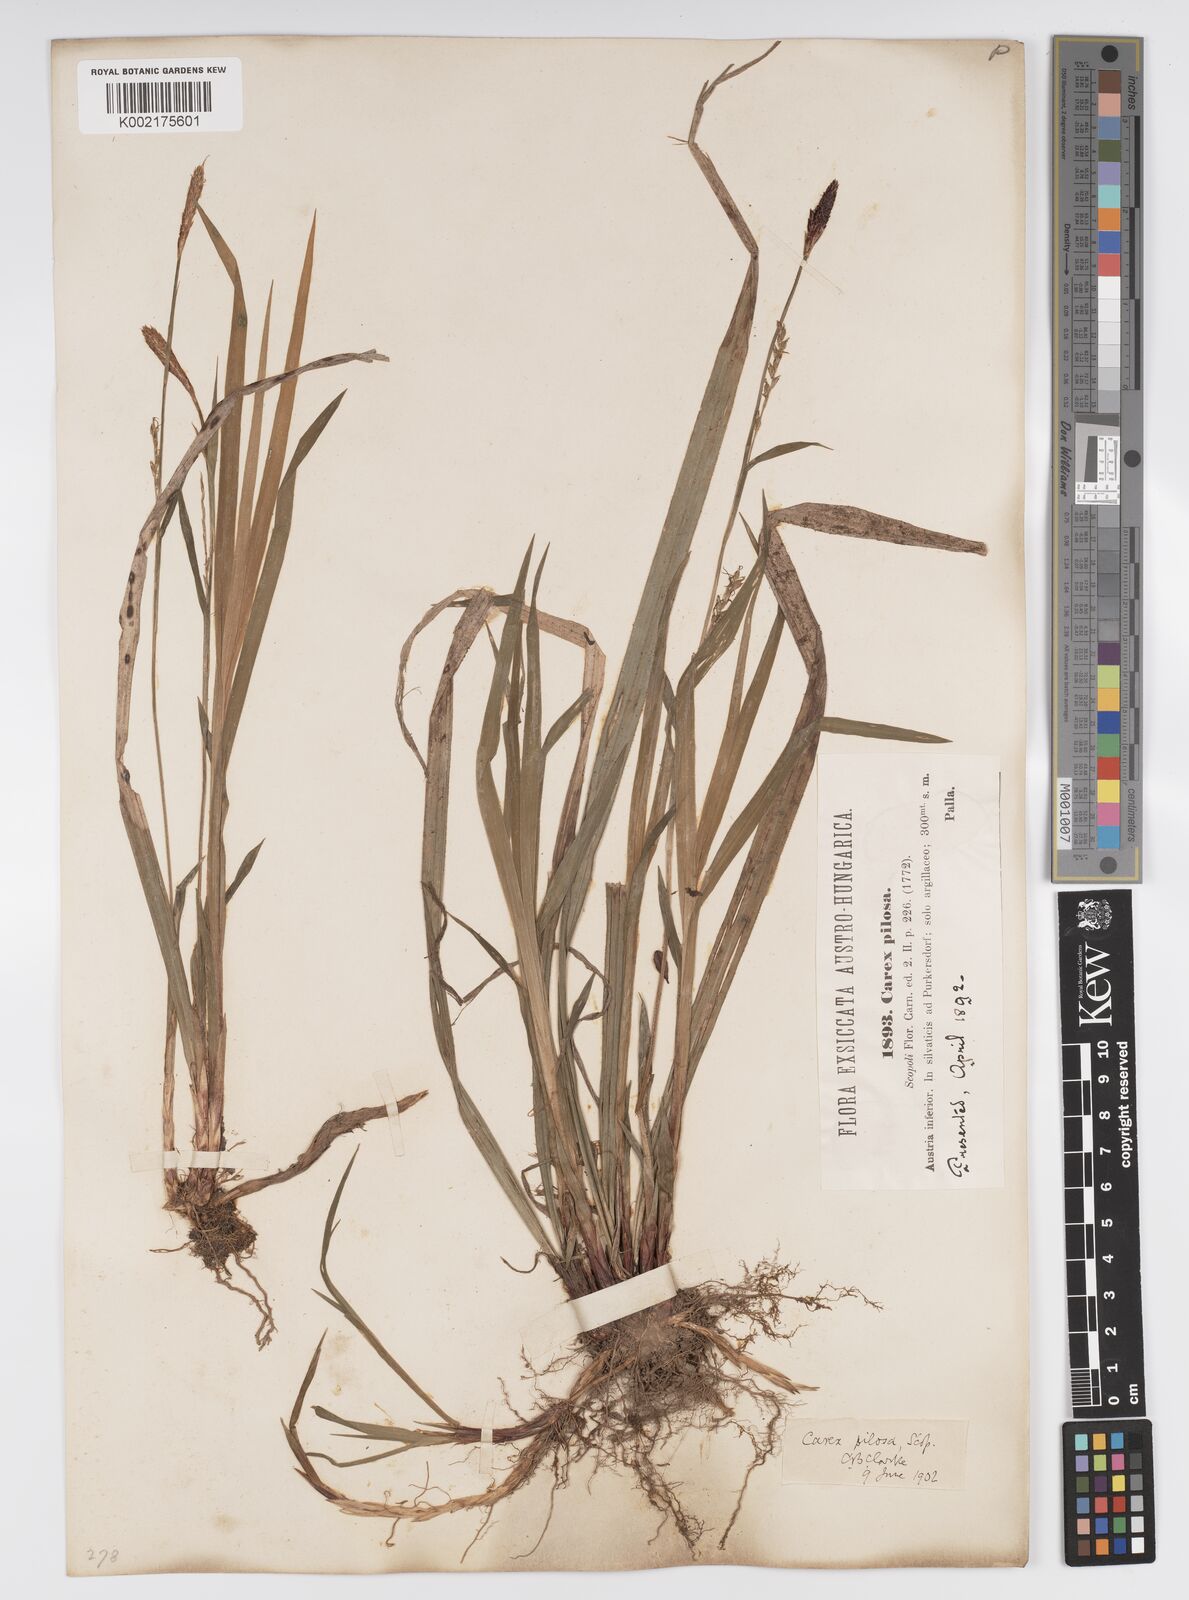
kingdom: Plantae
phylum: Tracheophyta
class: Liliopsida
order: Poales
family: Cyperaceae
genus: Carex
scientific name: Carex pilosa
